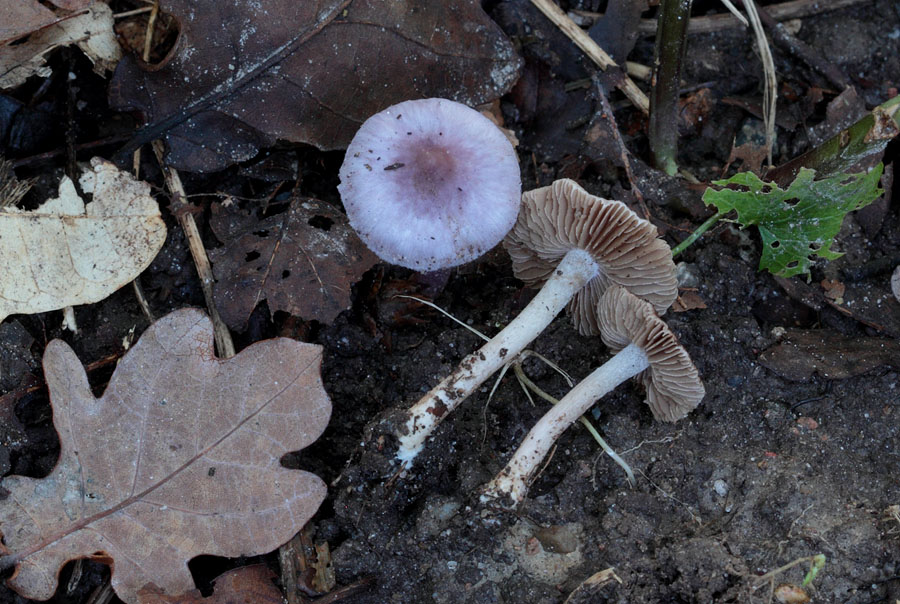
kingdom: Fungi
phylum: Basidiomycota
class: Agaricomycetes
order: Agaricales
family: Inocybaceae
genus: Inocybe
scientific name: Inocybe geophylla
